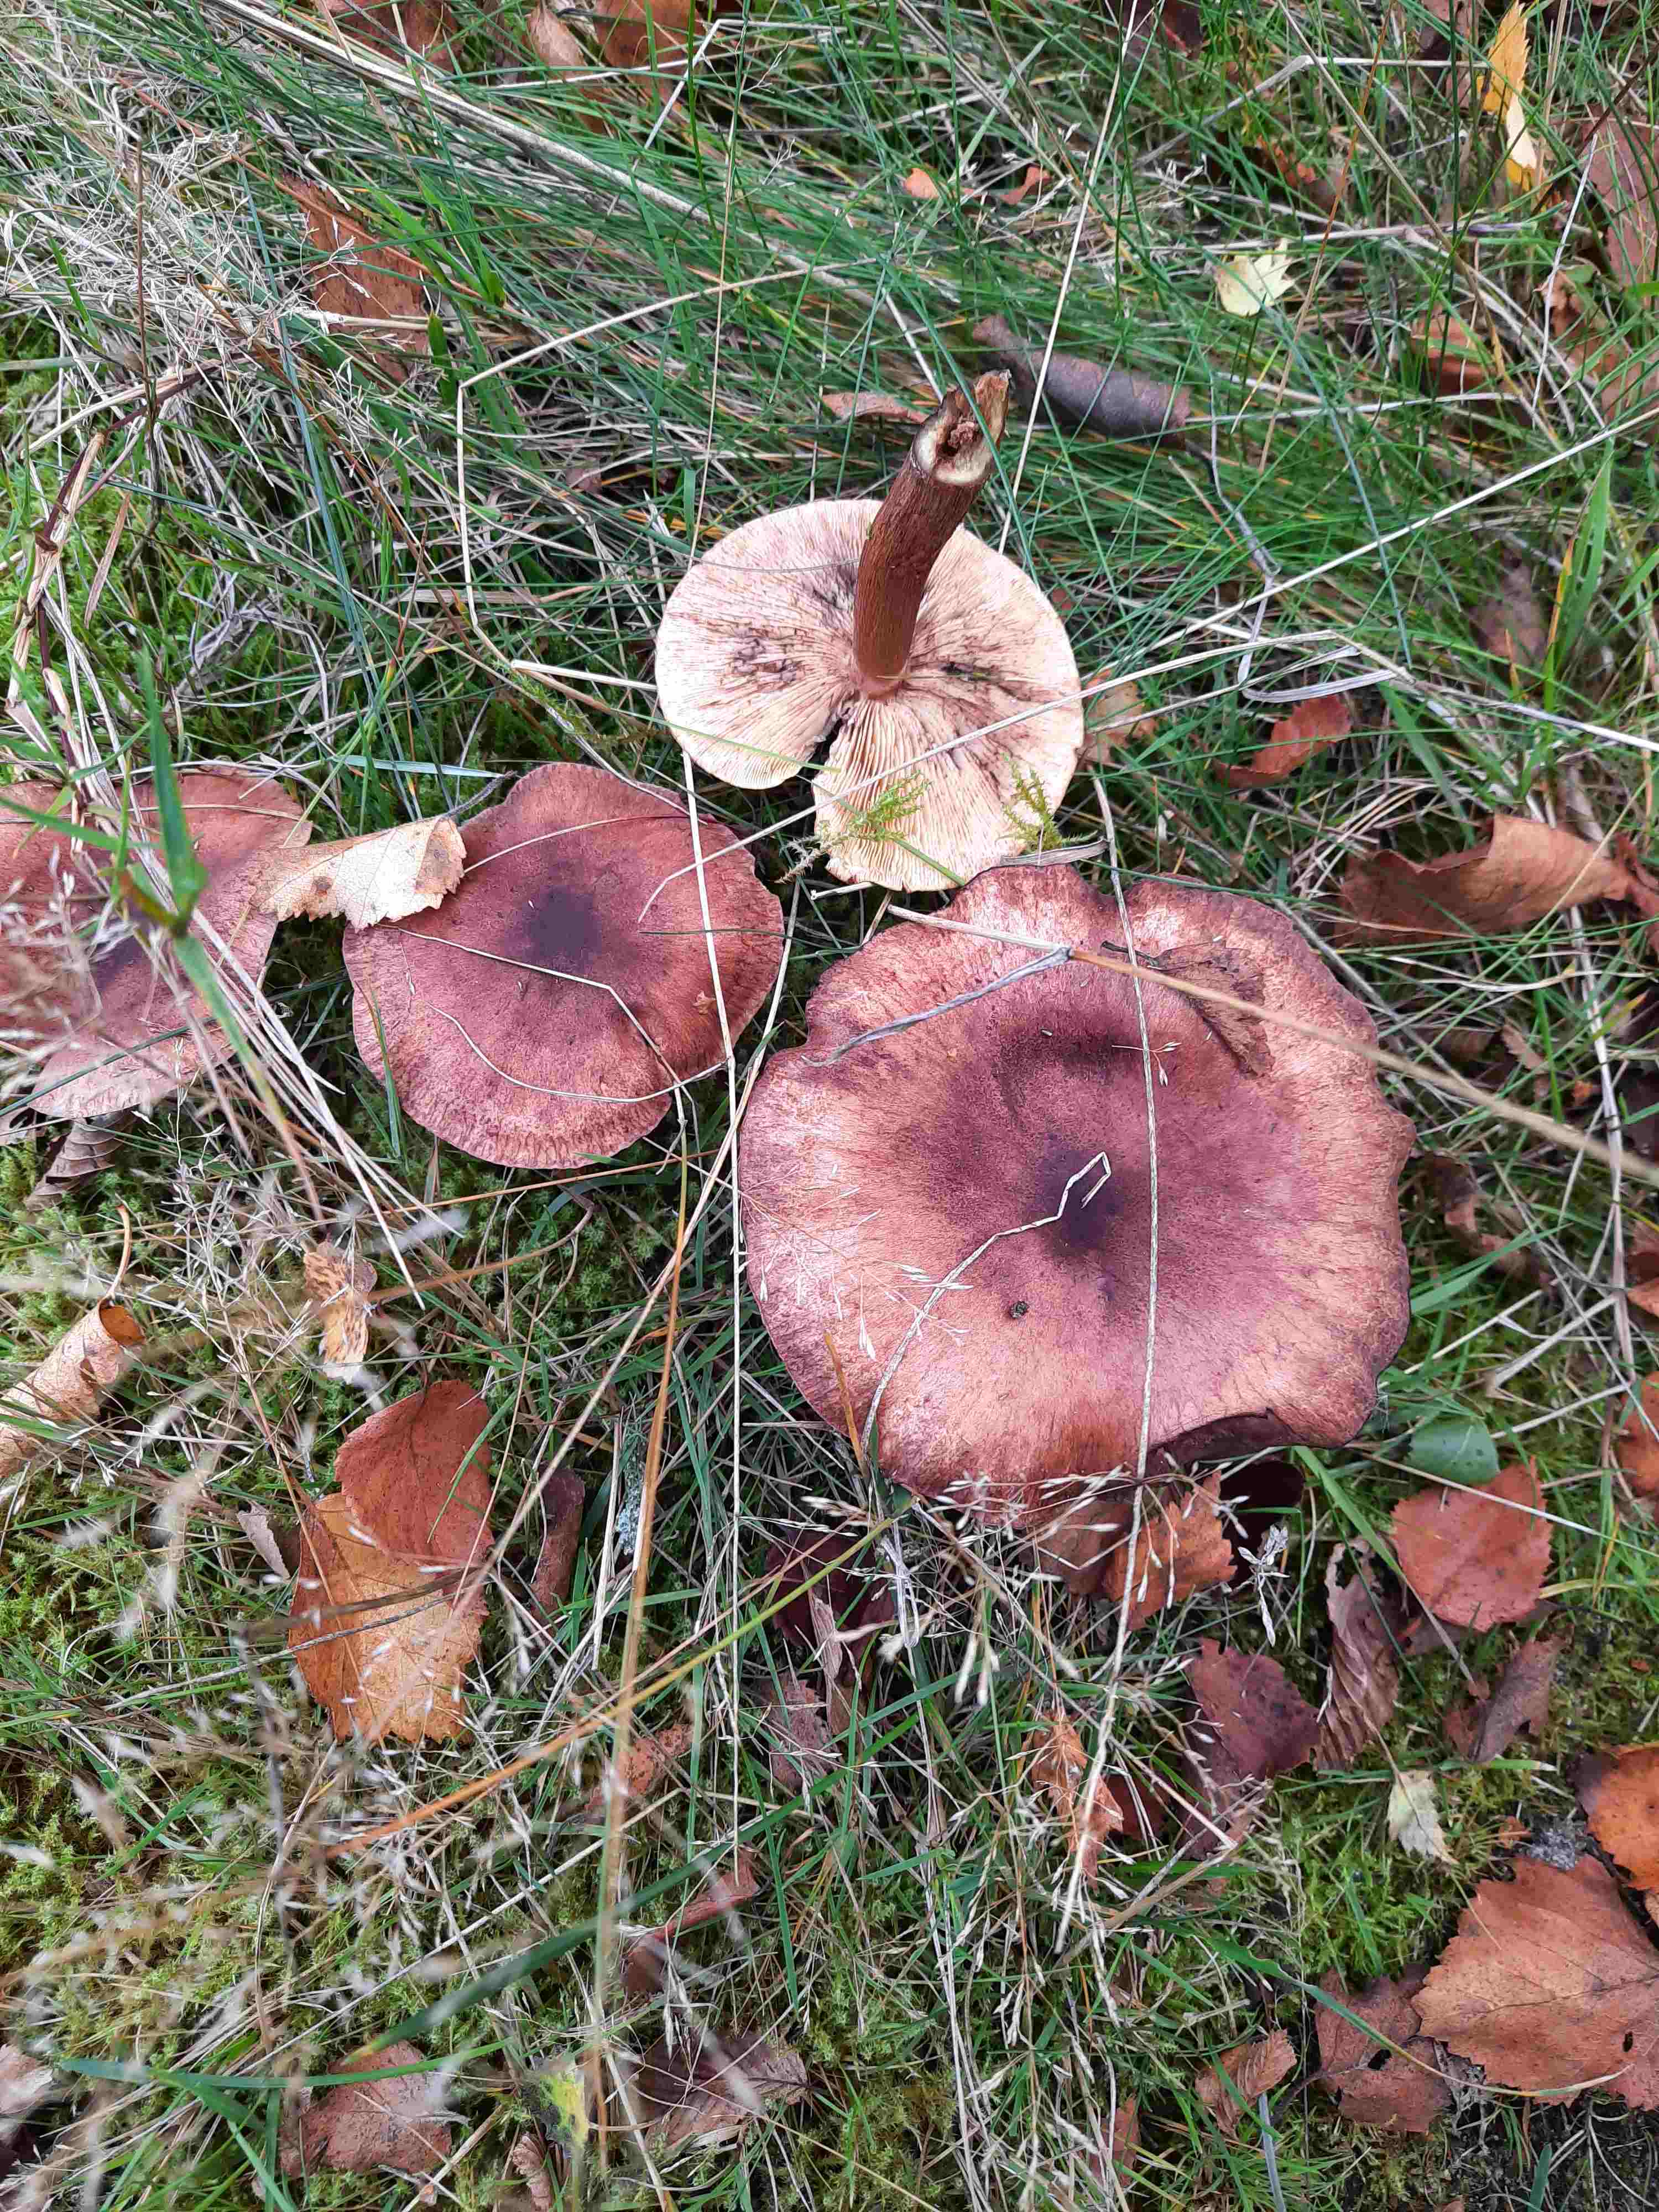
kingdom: Fungi
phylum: Basidiomycota
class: Agaricomycetes
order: Agaricales
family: Tricholomataceae
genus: Tricholoma
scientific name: Tricholoma fulvum
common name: birke-ridderhat
